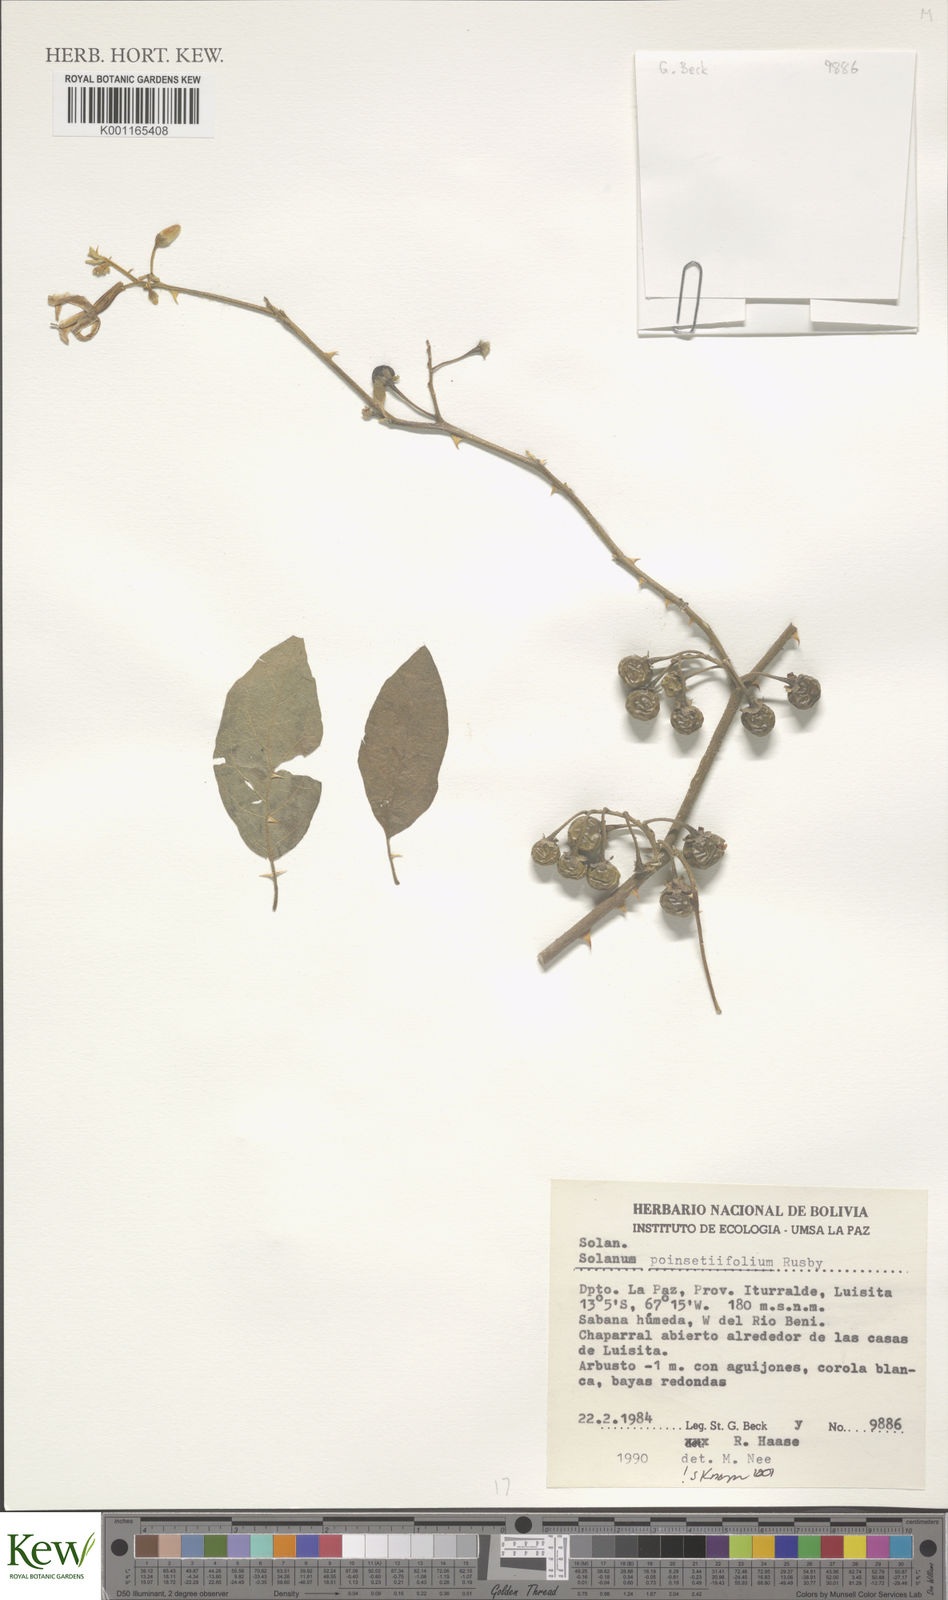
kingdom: Plantae
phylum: Tracheophyta
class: Magnoliopsida
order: Solanales
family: Solanaceae
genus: Solanum
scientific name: Solanum poinsettiifolium
